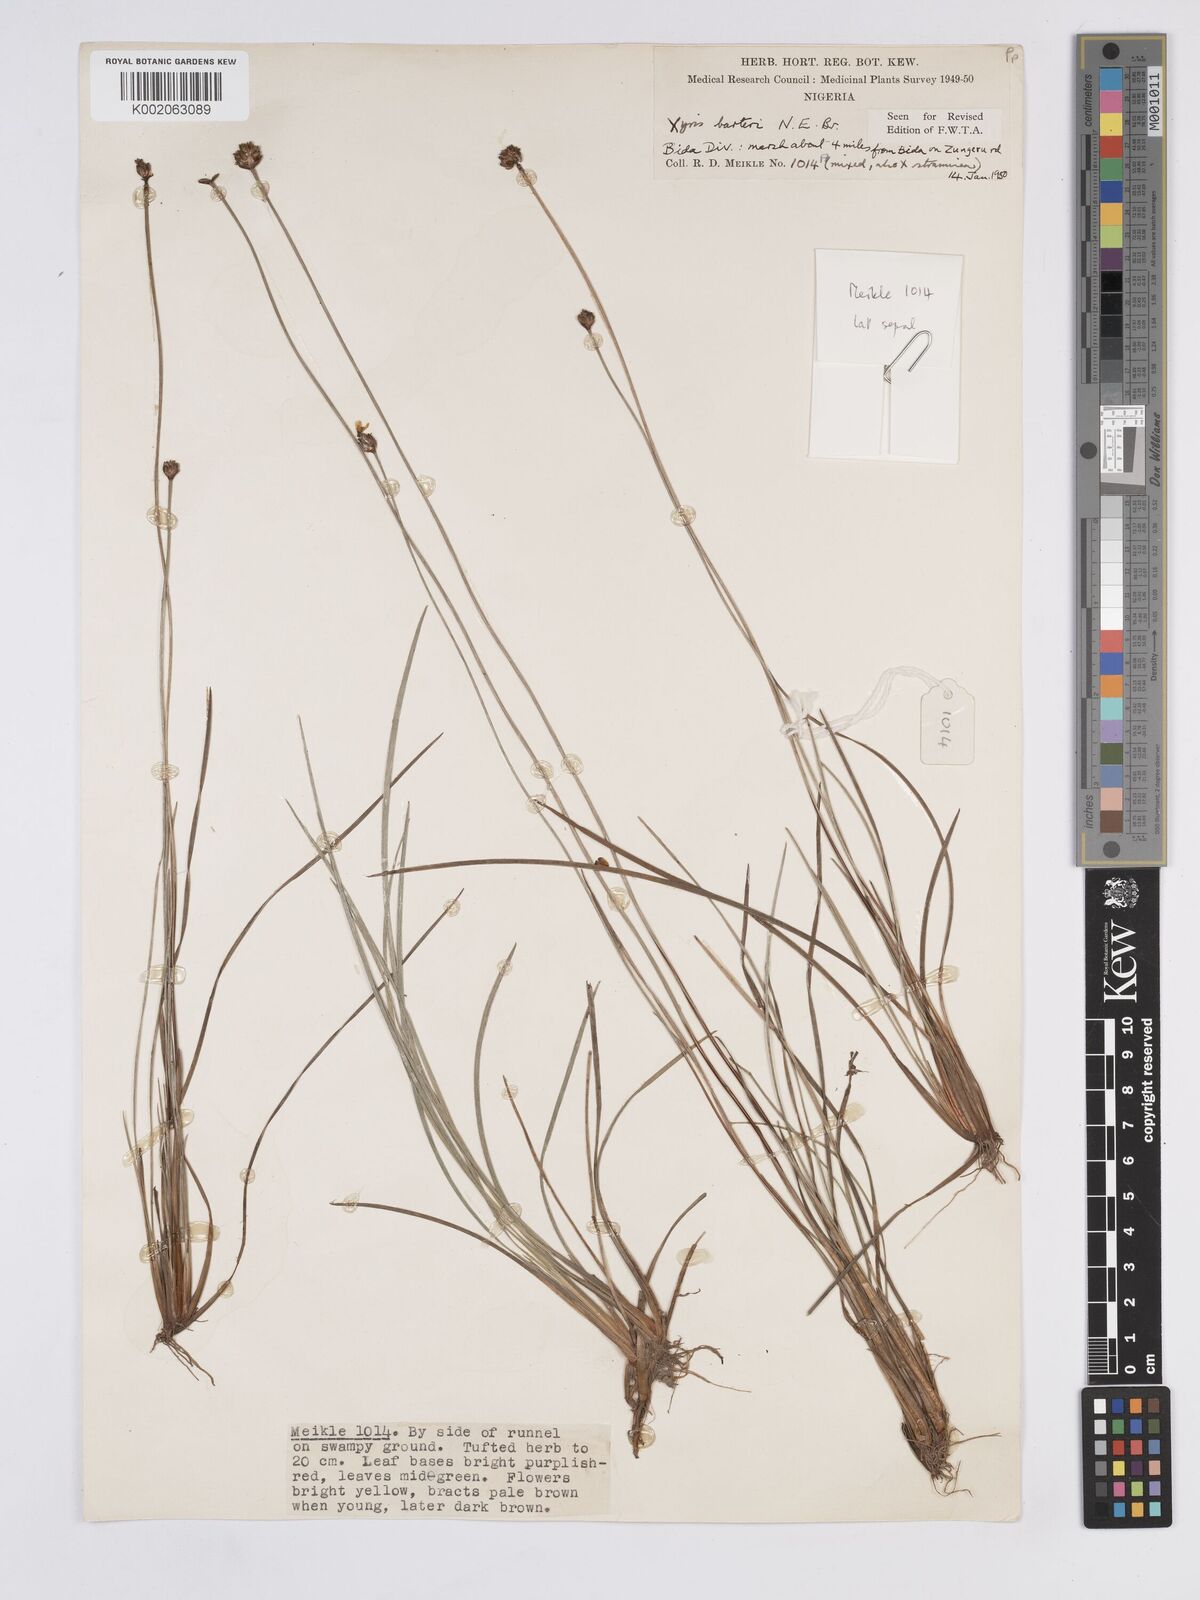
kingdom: Plantae
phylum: Tracheophyta
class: Liliopsida
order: Poales
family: Xyridaceae
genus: Xyris
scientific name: Xyris barteri
